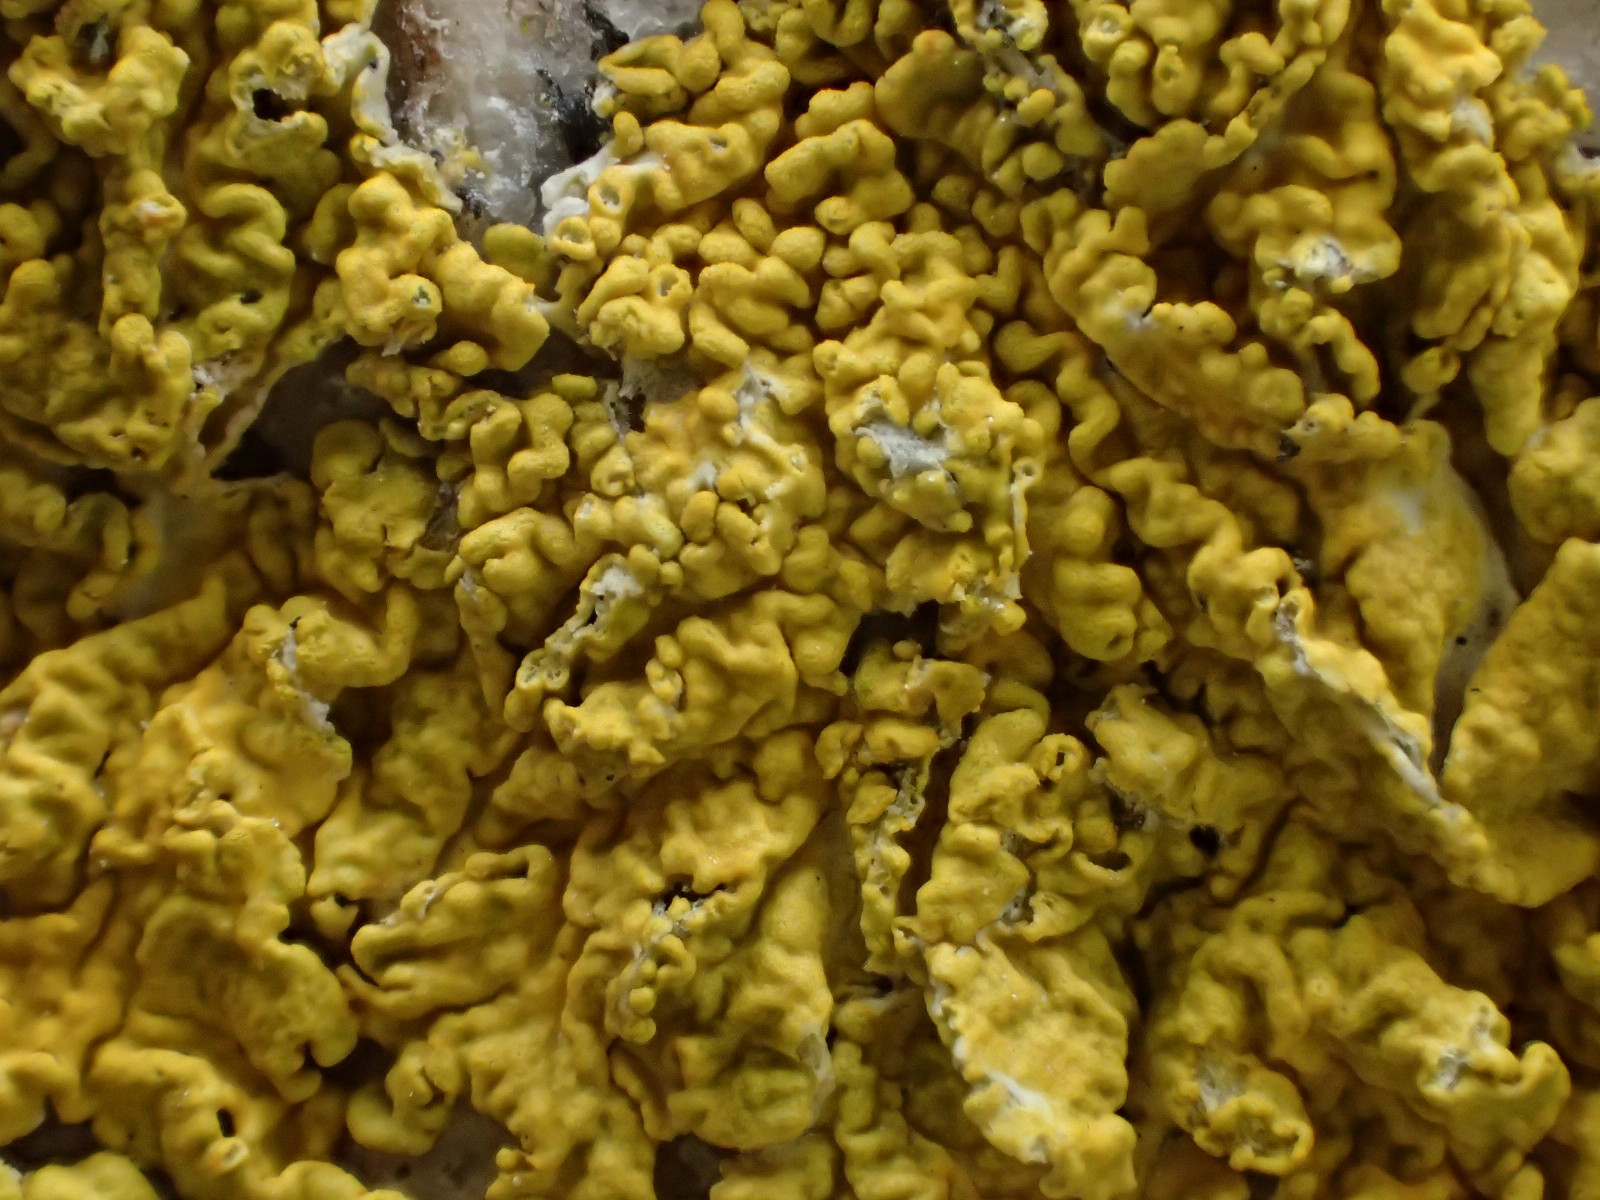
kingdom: Fungi
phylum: Ascomycota
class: Lecanoromycetes
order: Teloschistales
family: Teloschistaceae
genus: Xanthoria
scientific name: Xanthoria calcicola
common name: vortet væggelav
